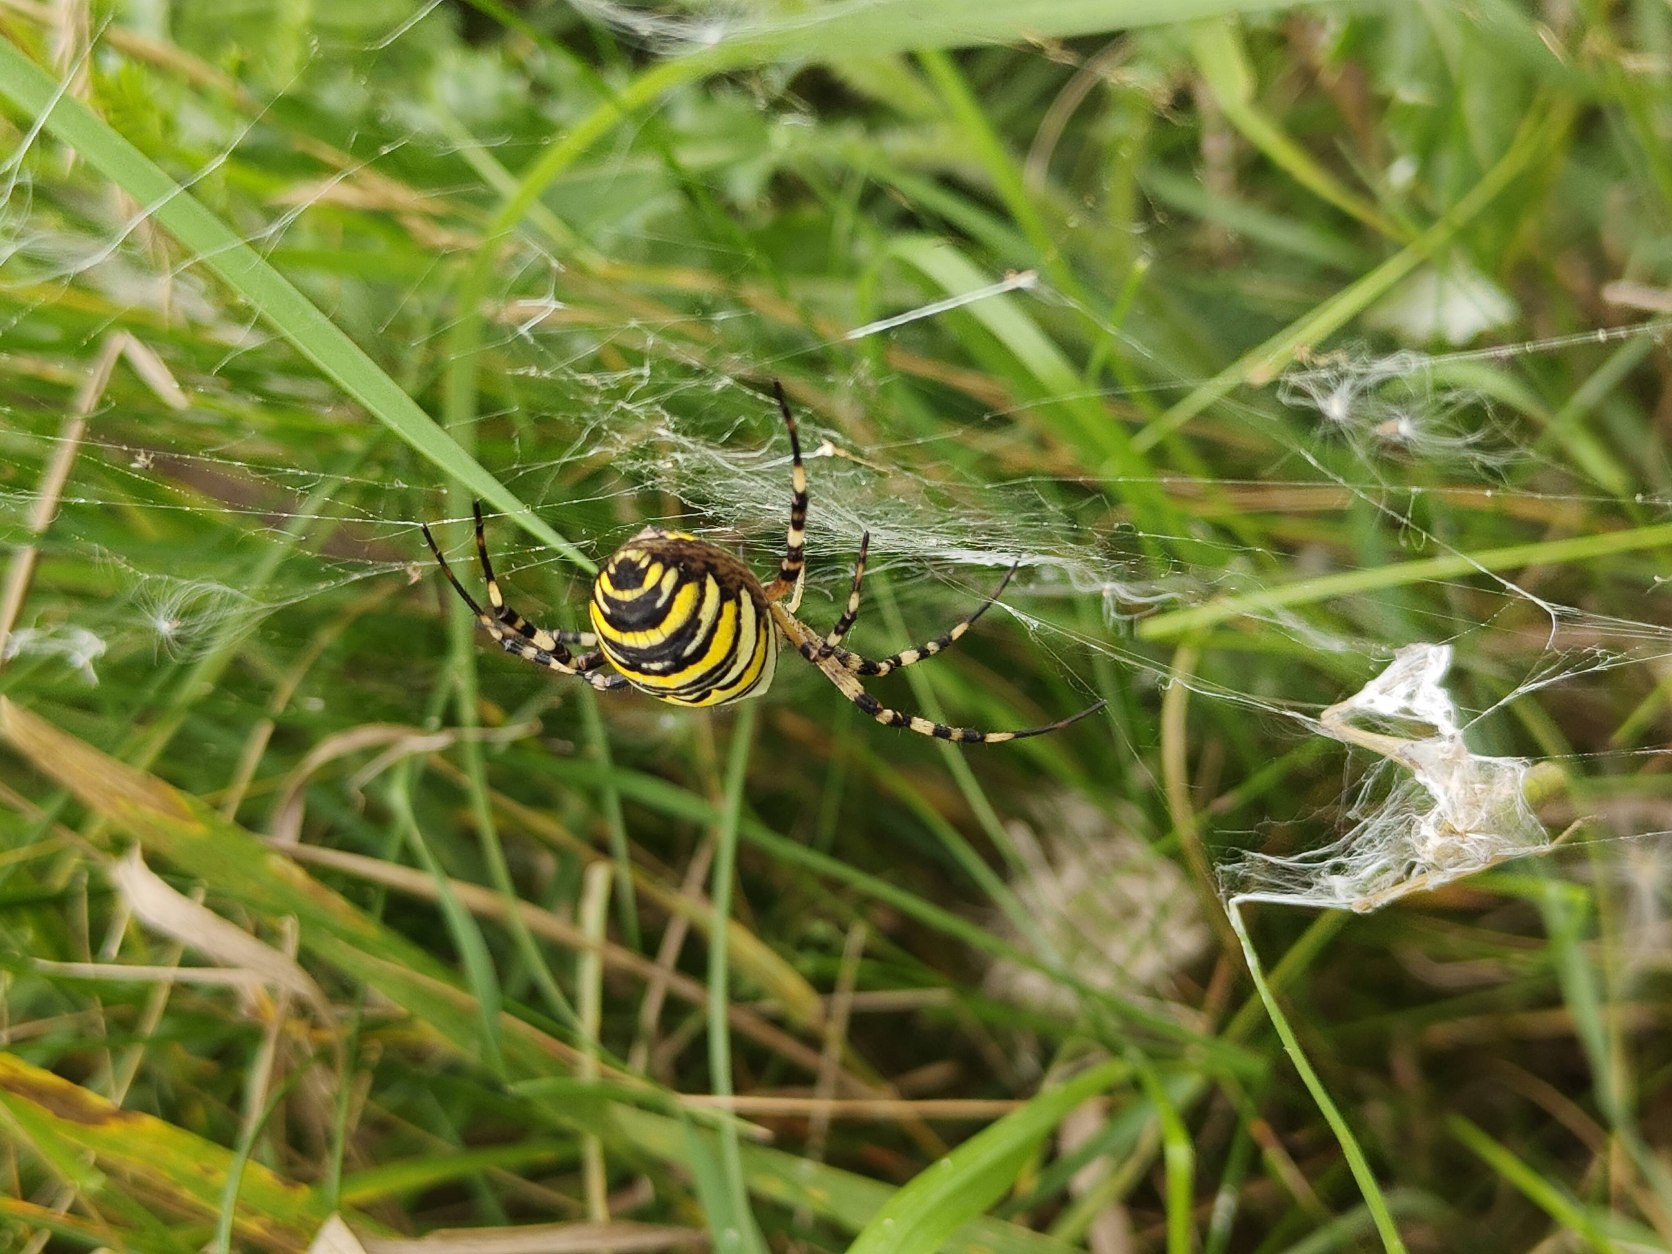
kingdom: Animalia
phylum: Arthropoda
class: Arachnida
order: Araneae
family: Araneidae
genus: Argiope
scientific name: Argiope bruennichi
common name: Hvepseedderkop
